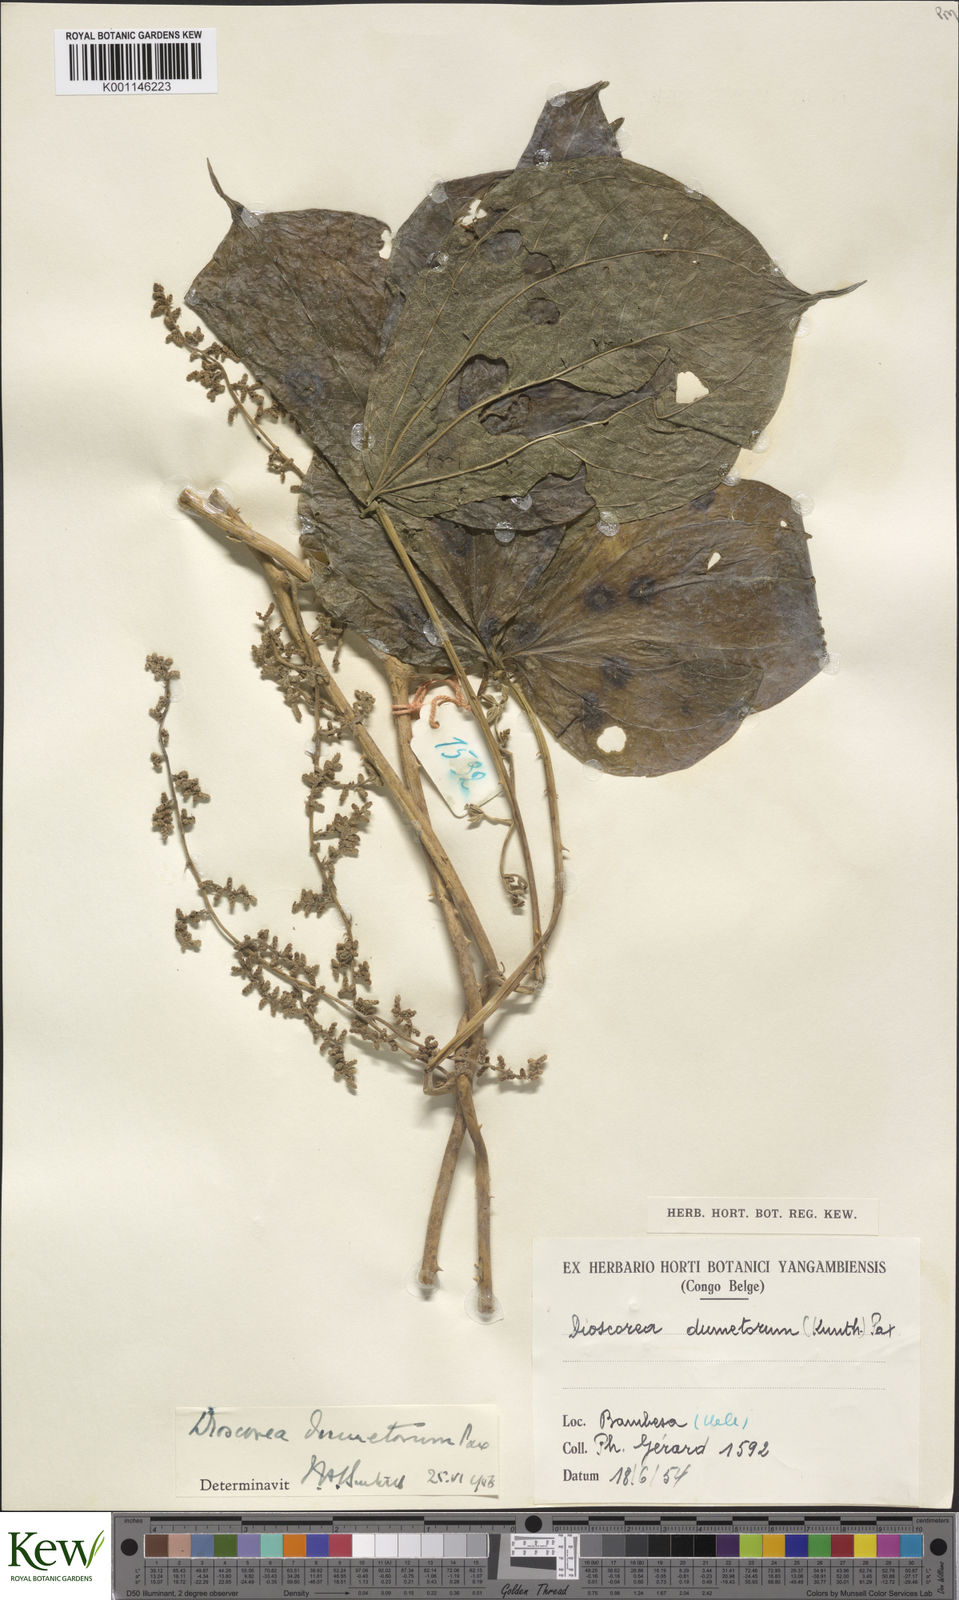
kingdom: Plantae
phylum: Tracheophyta
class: Liliopsida
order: Dioscoreales
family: Dioscoreaceae
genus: Dioscorea
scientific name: Dioscorea dumetorum
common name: African bitter yam
